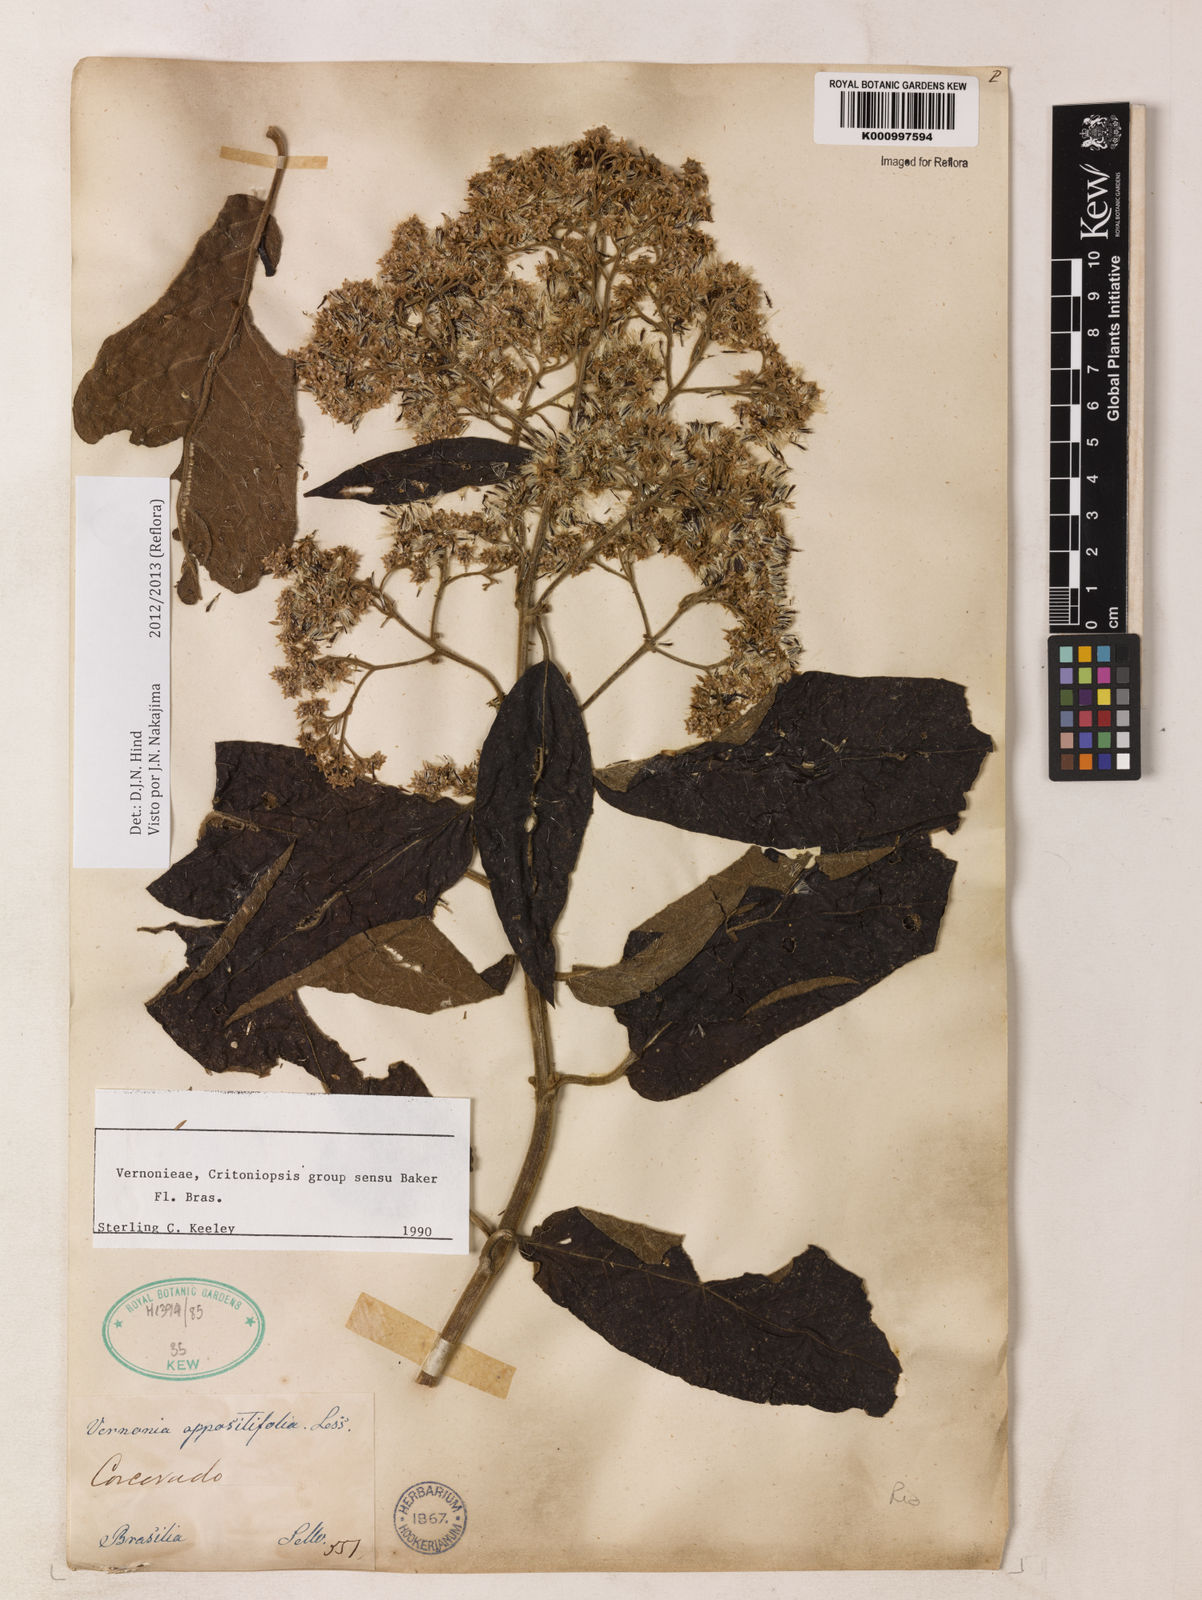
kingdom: Plantae
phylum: Tracheophyta
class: Magnoliopsida
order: Asterales
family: Asteraceae
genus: Critoniopsis
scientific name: Critoniopsis stellata
